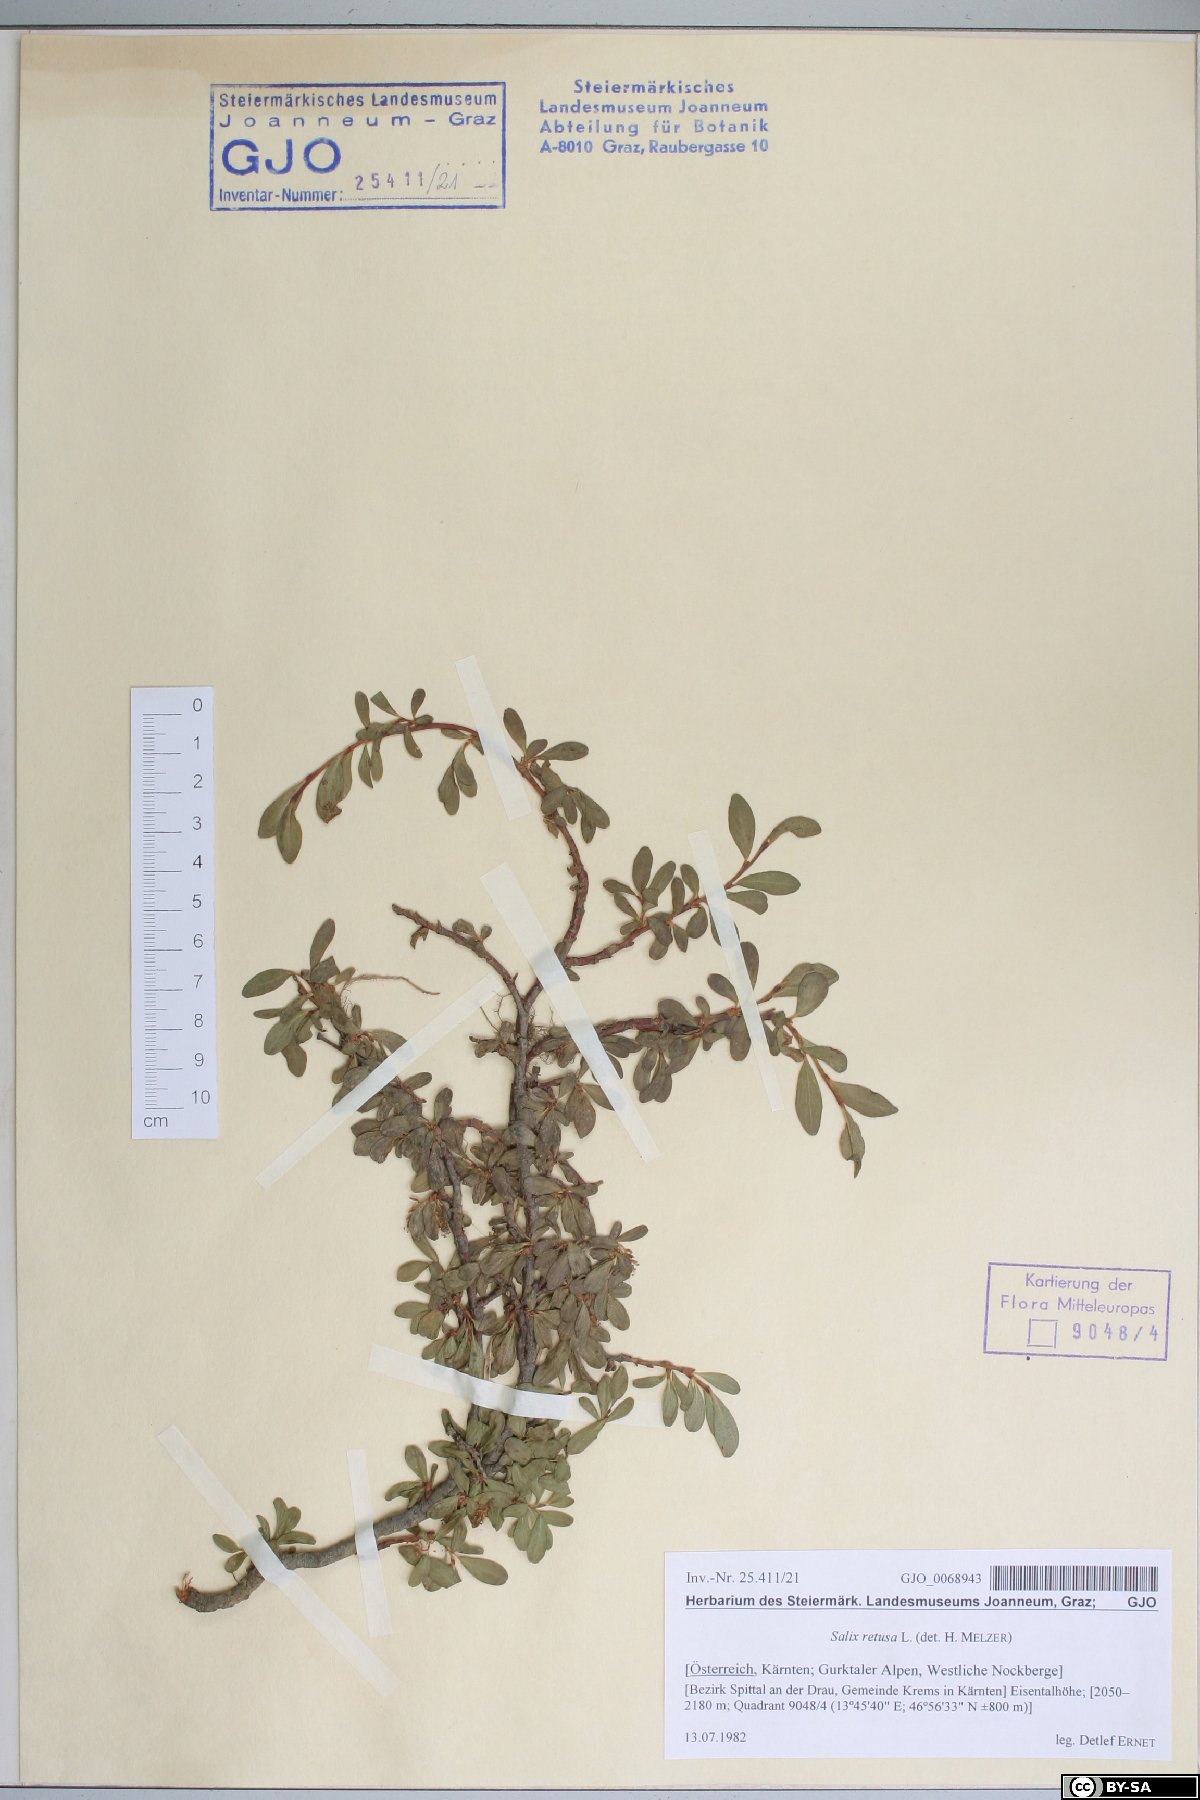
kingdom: Plantae
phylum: Tracheophyta
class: Magnoliopsida
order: Malpighiales
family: Salicaceae
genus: Salix
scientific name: Salix retusa
